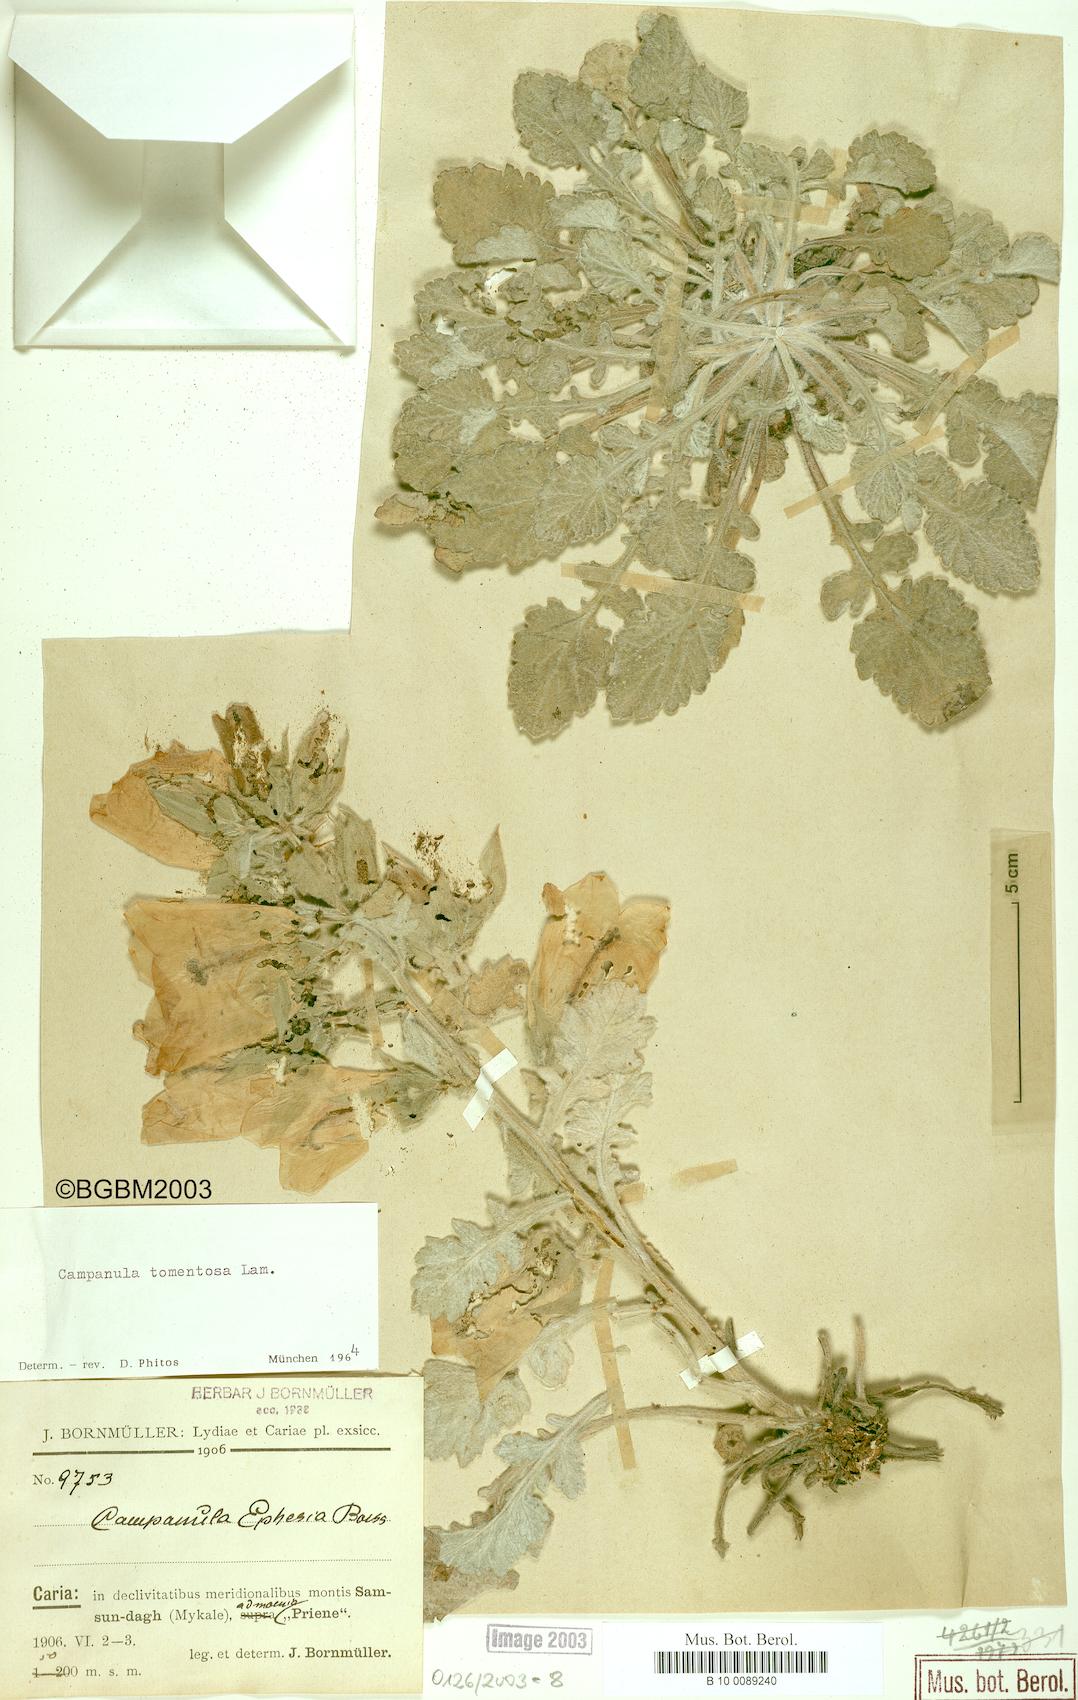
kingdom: Plantae
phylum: Tracheophyta
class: Magnoliopsida
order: Asterales
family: Campanulaceae
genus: Campanula
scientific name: Campanula tomentosa
